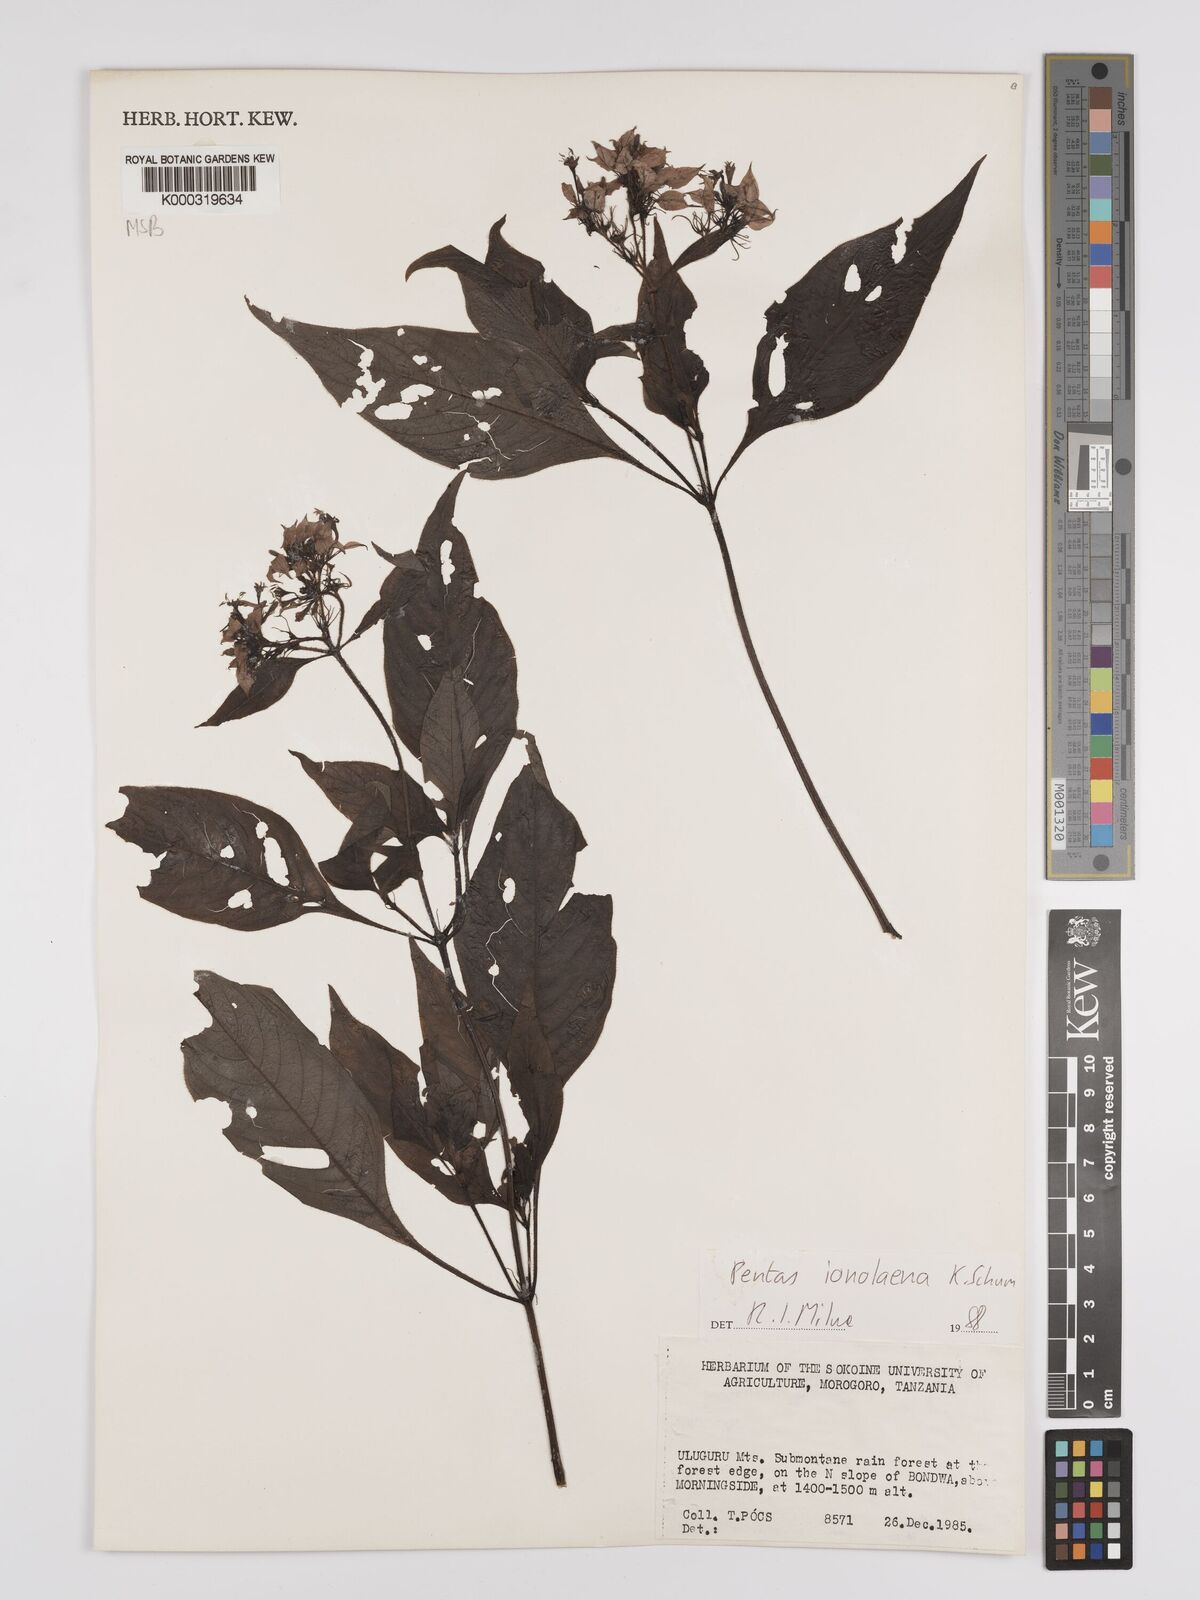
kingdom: Plantae
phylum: Tracheophyta
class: Magnoliopsida
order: Gentianales
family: Rubiaceae
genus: Phyllopentas
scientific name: Phyllopentas ionolaena
